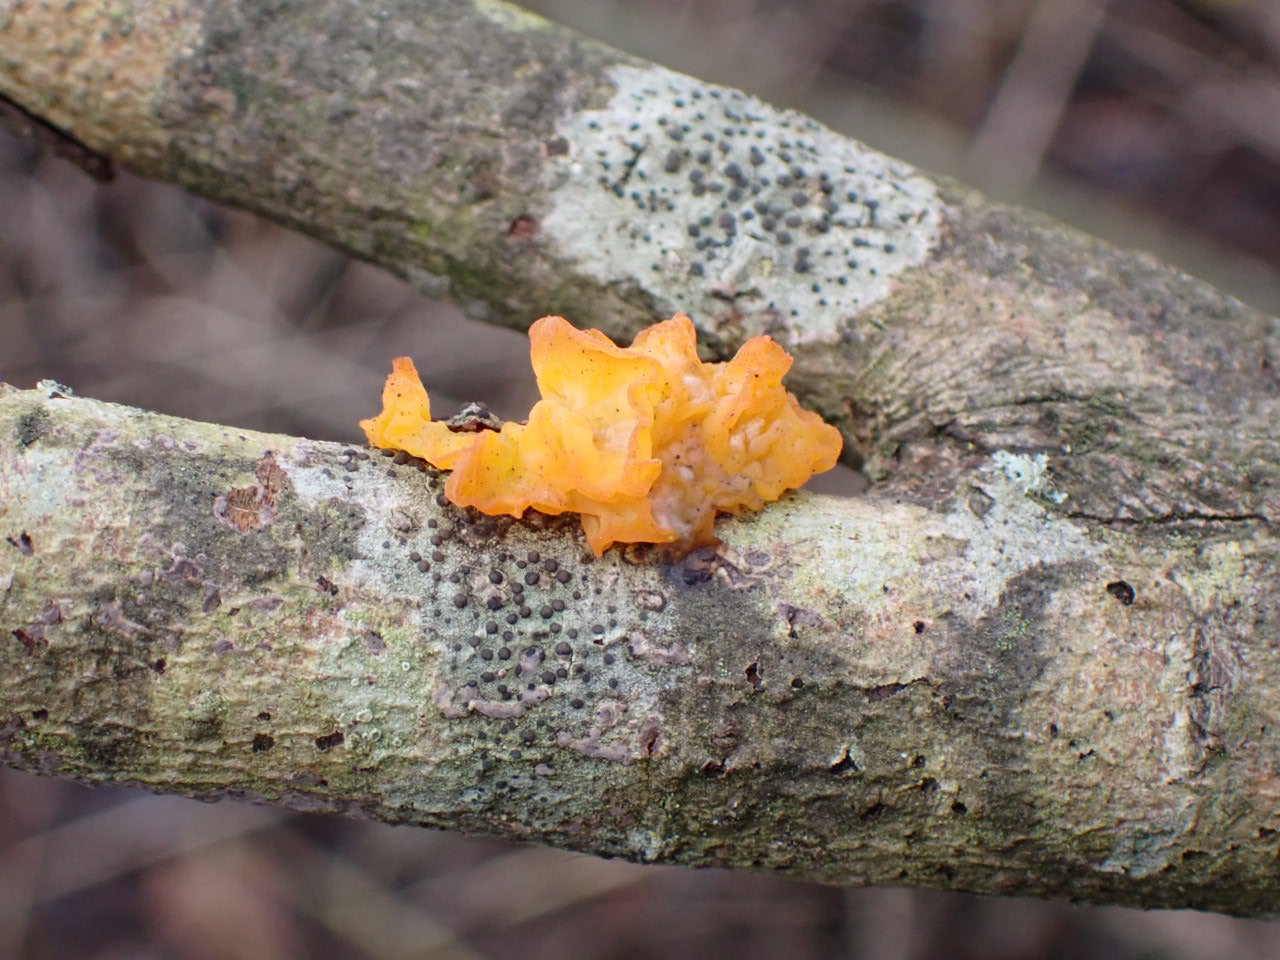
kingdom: Fungi
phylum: Basidiomycota
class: Tremellomycetes
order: Tremellales
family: Tremellaceae
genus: Tremella
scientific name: Tremella mesenterica
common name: gul bævresvamp
